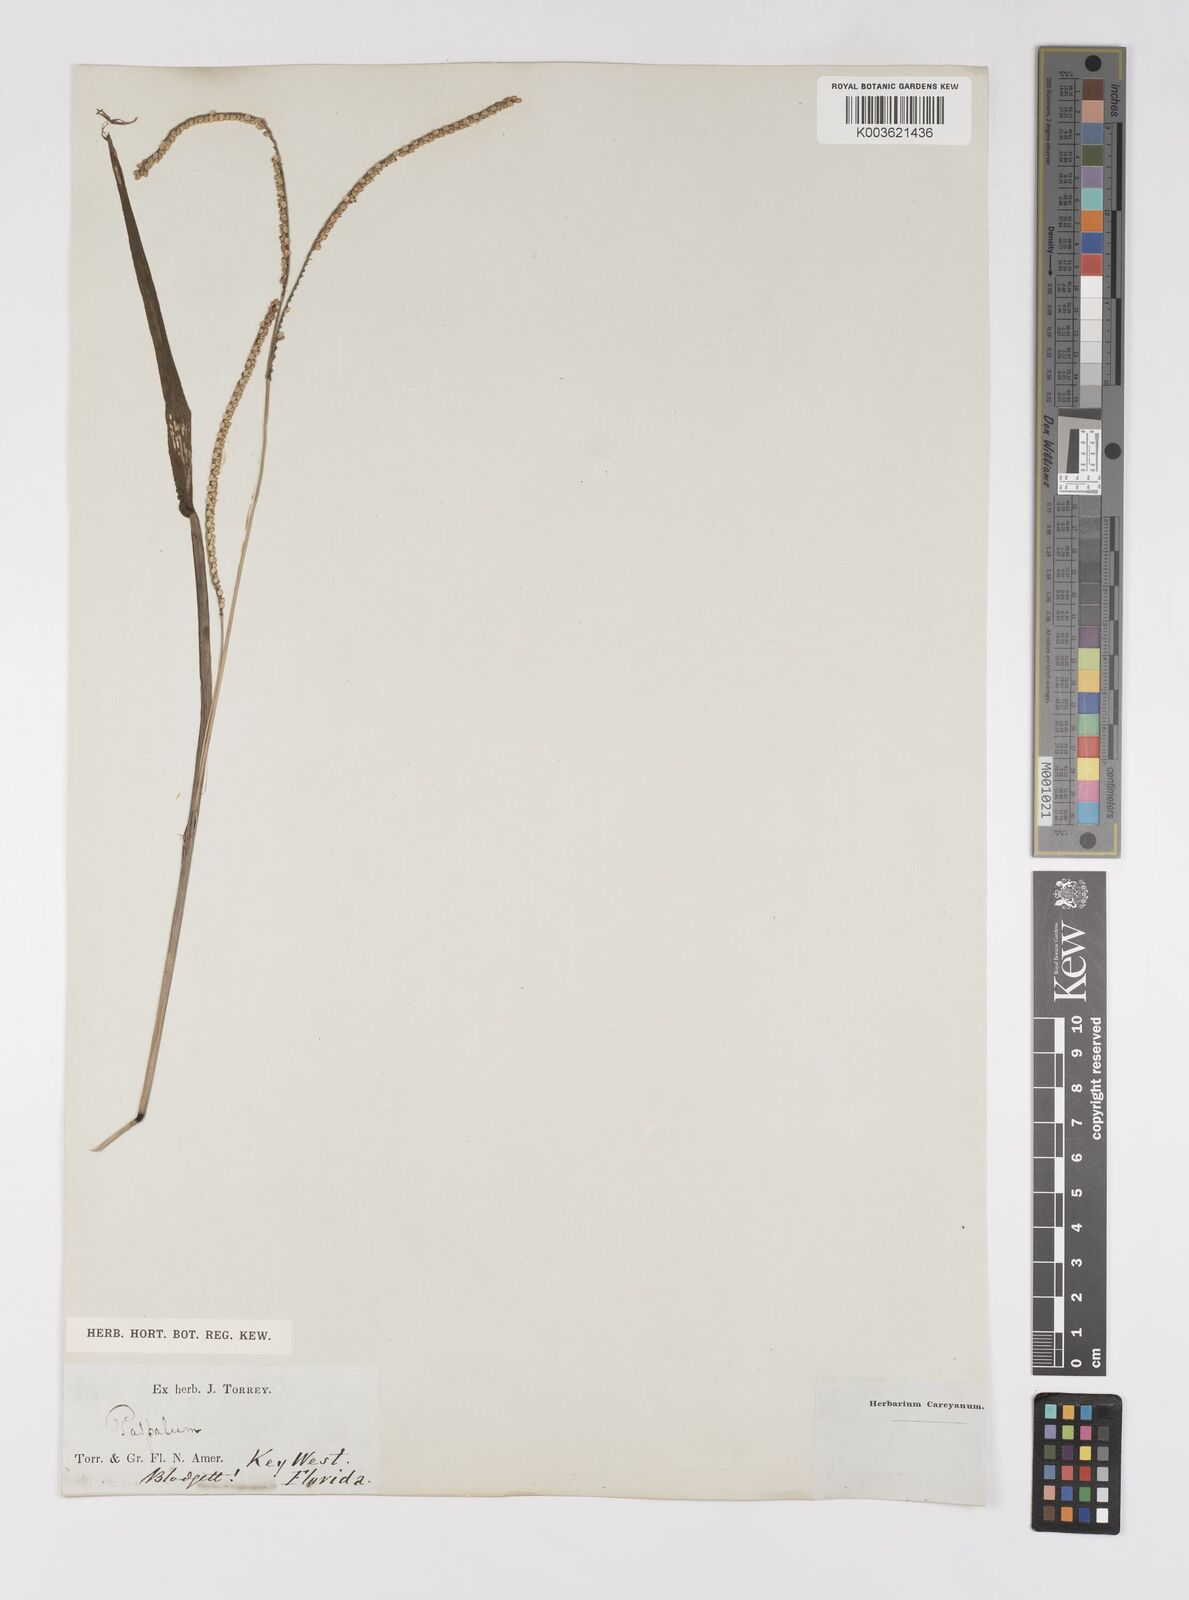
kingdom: Plantae
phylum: Tracheophyta
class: Liliopsida
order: Poales
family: Poaceae
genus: Paspalum
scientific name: Paspalum
